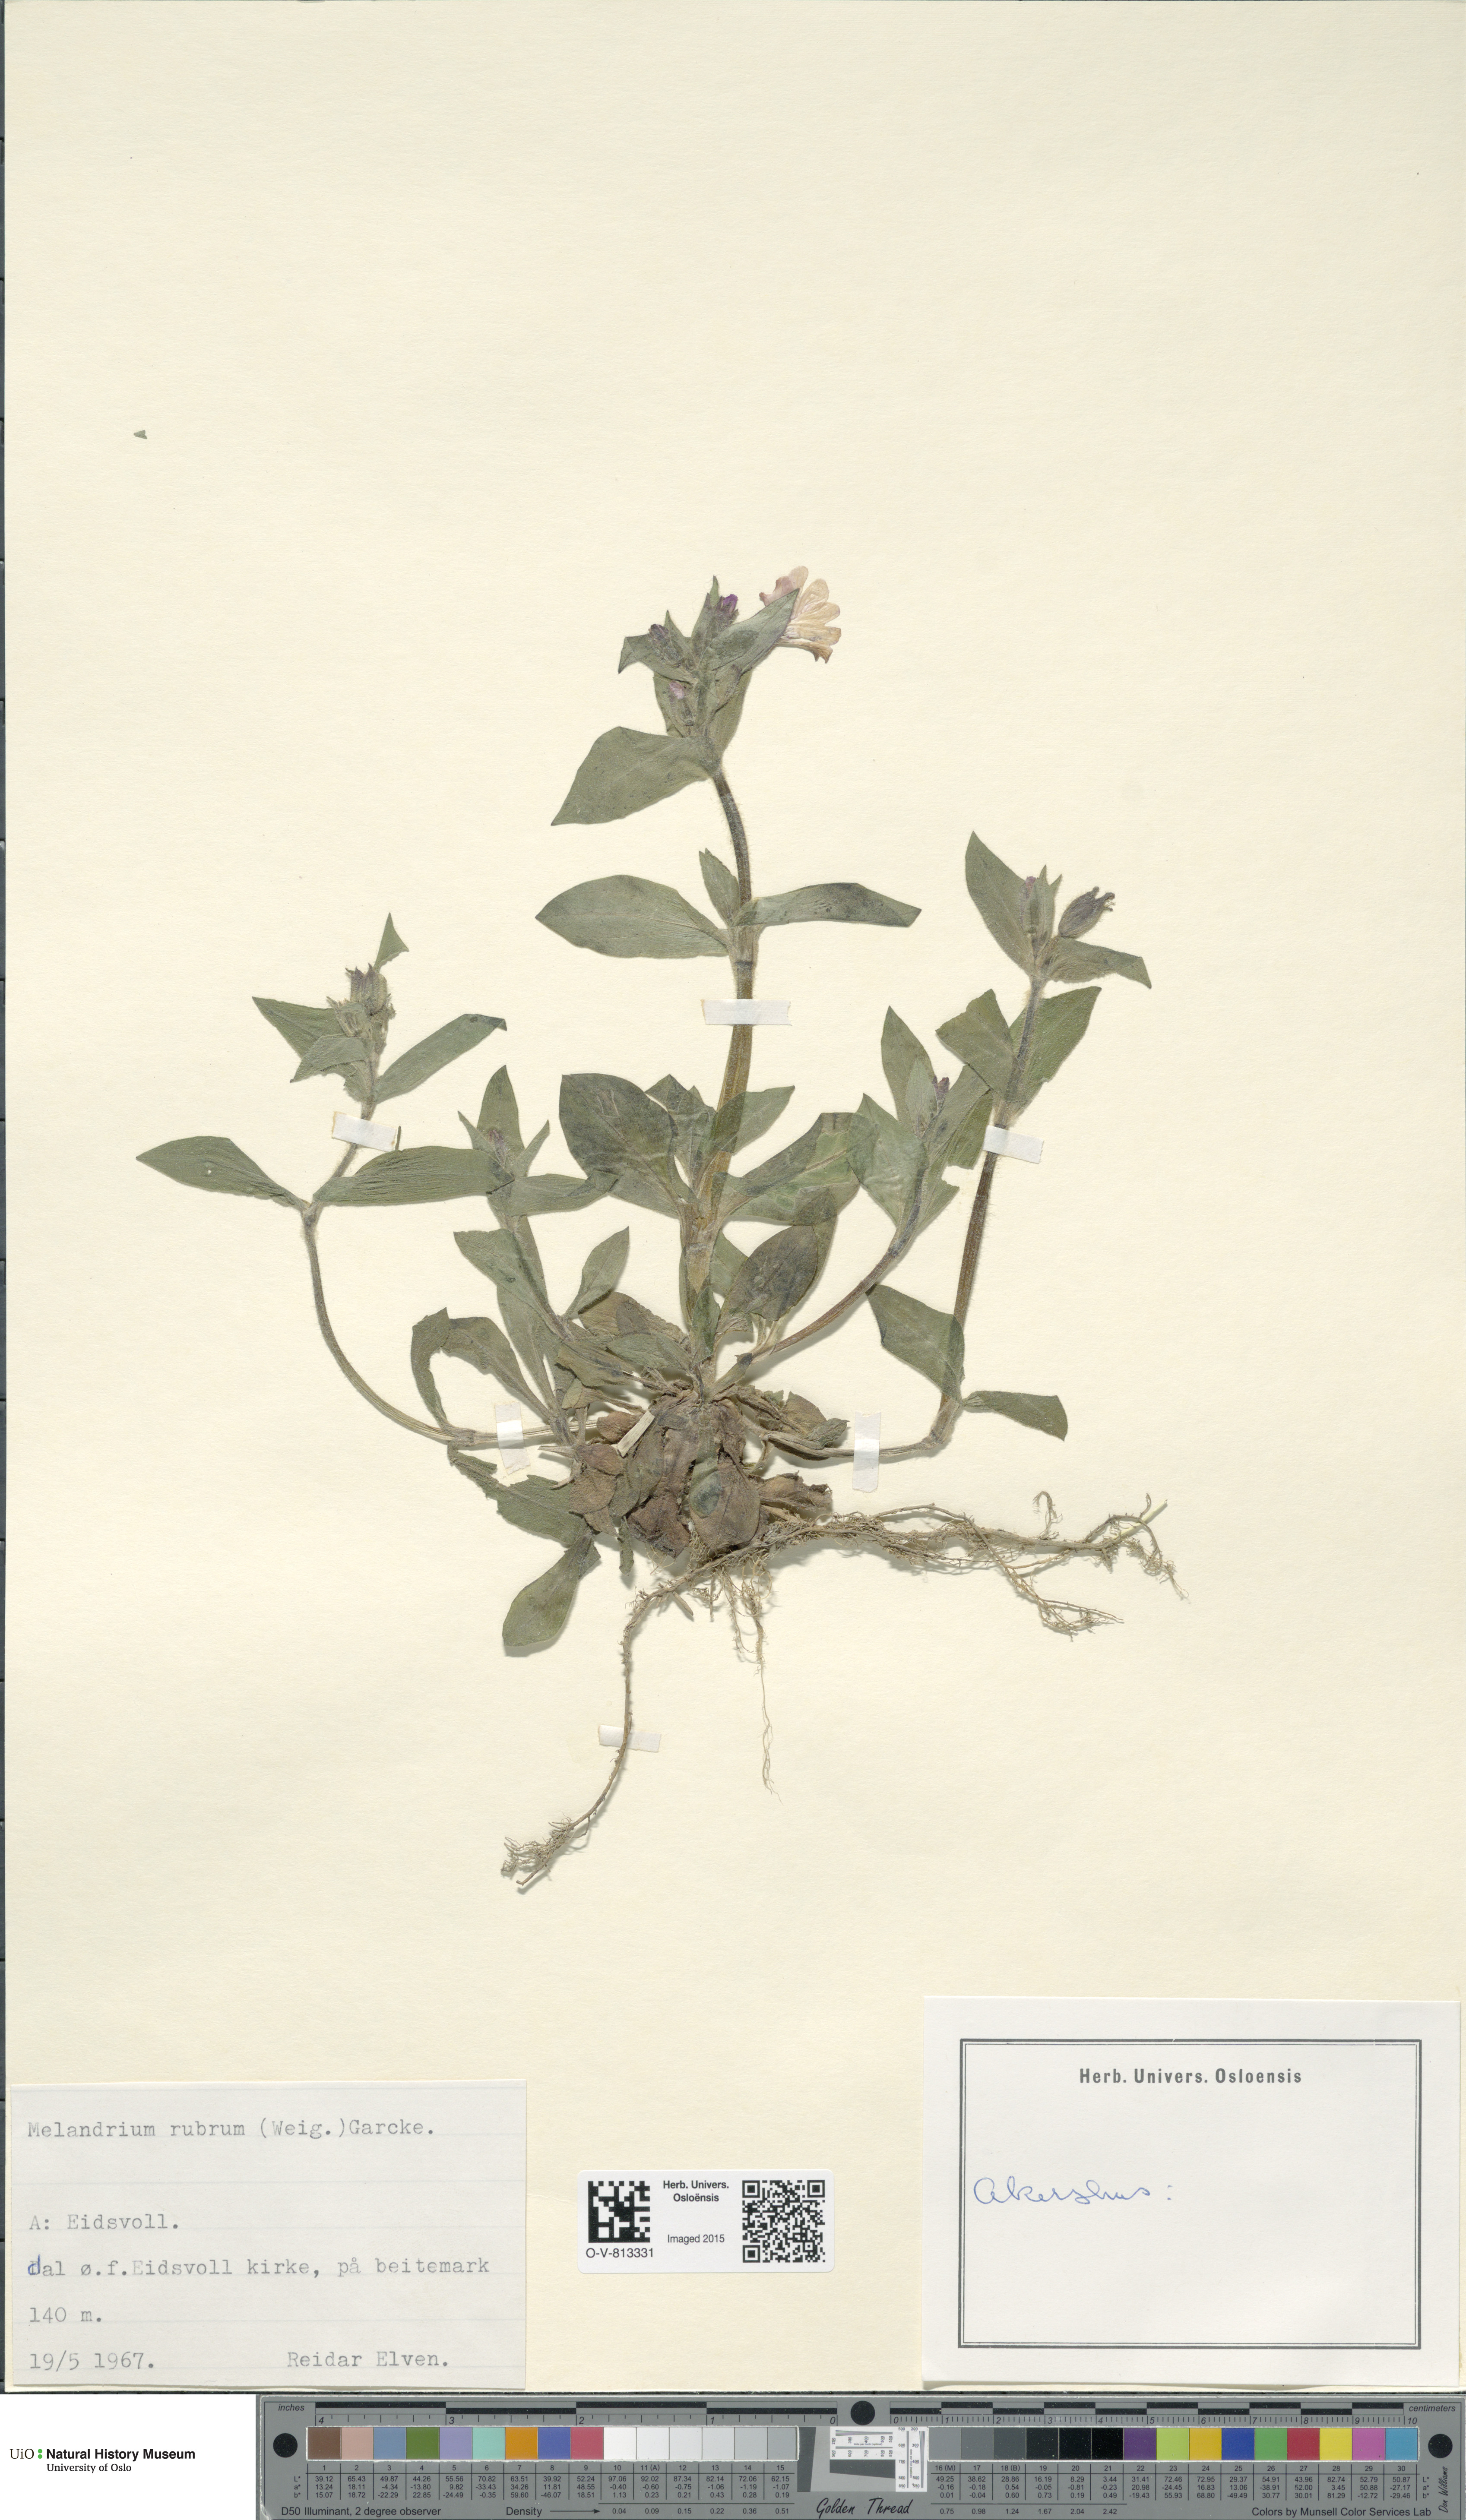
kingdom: Plantae
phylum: Tracheophyta
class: Magnoliopsida
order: Caryophyllales
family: Caryophyllaceae
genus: Silene
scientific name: Silene dioica
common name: Red campion
